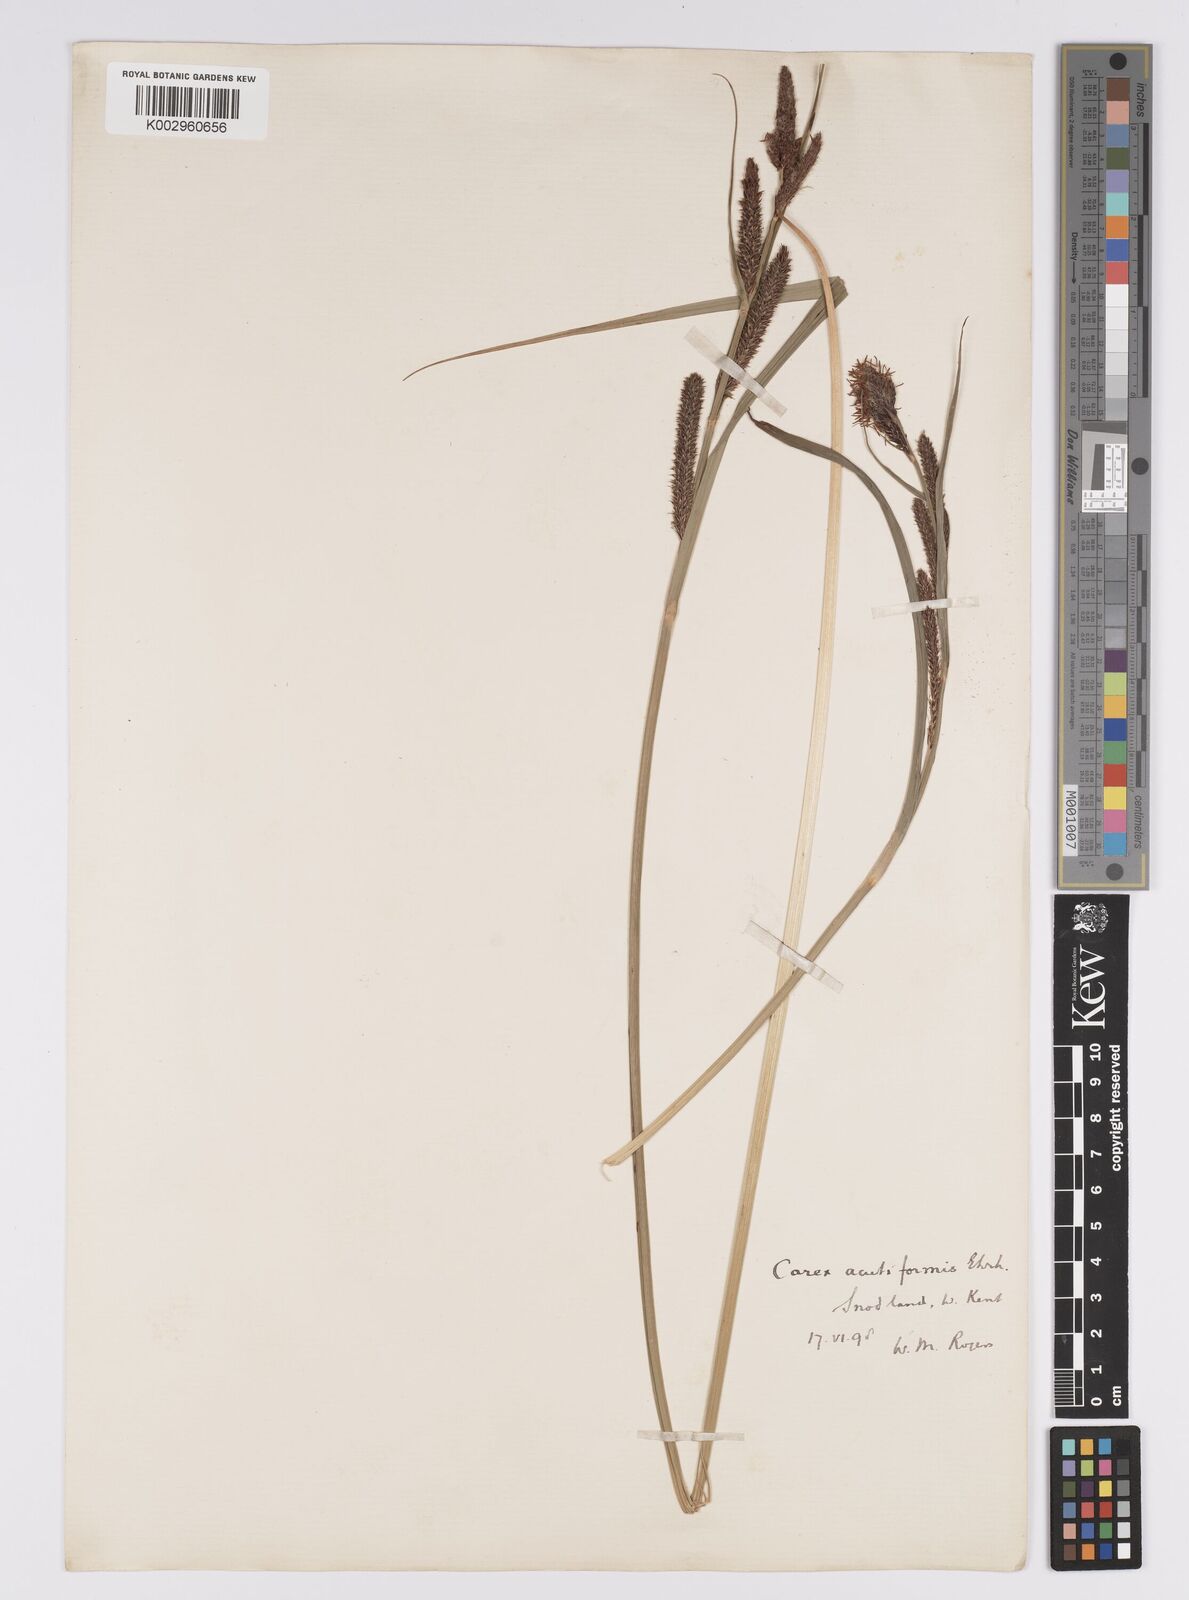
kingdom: Plantae
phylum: Tracheophyta
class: Liliopsida
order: Poales
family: Cyperaceae
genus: Carex
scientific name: Carex acutiformis
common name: Lesser pond-sedge
